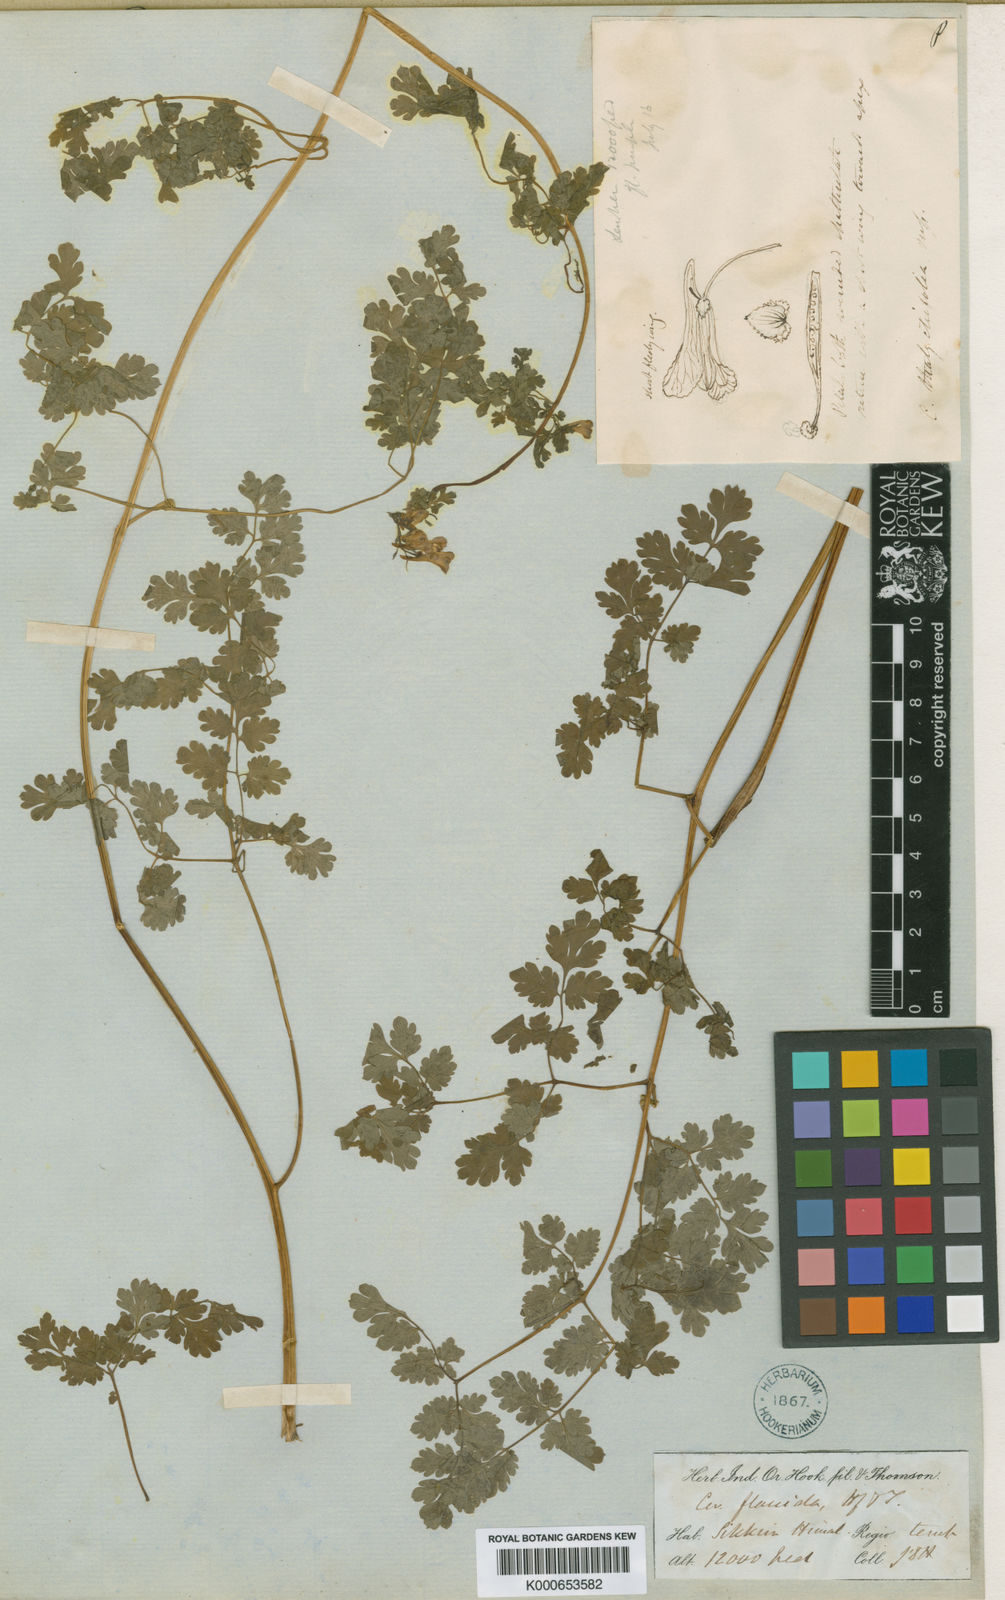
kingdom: Plantae
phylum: Tracheophyta
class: Magnoliopsida
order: Ranunculales
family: Papaveraceae
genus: Corydalis
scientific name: Corydalis flaccida
